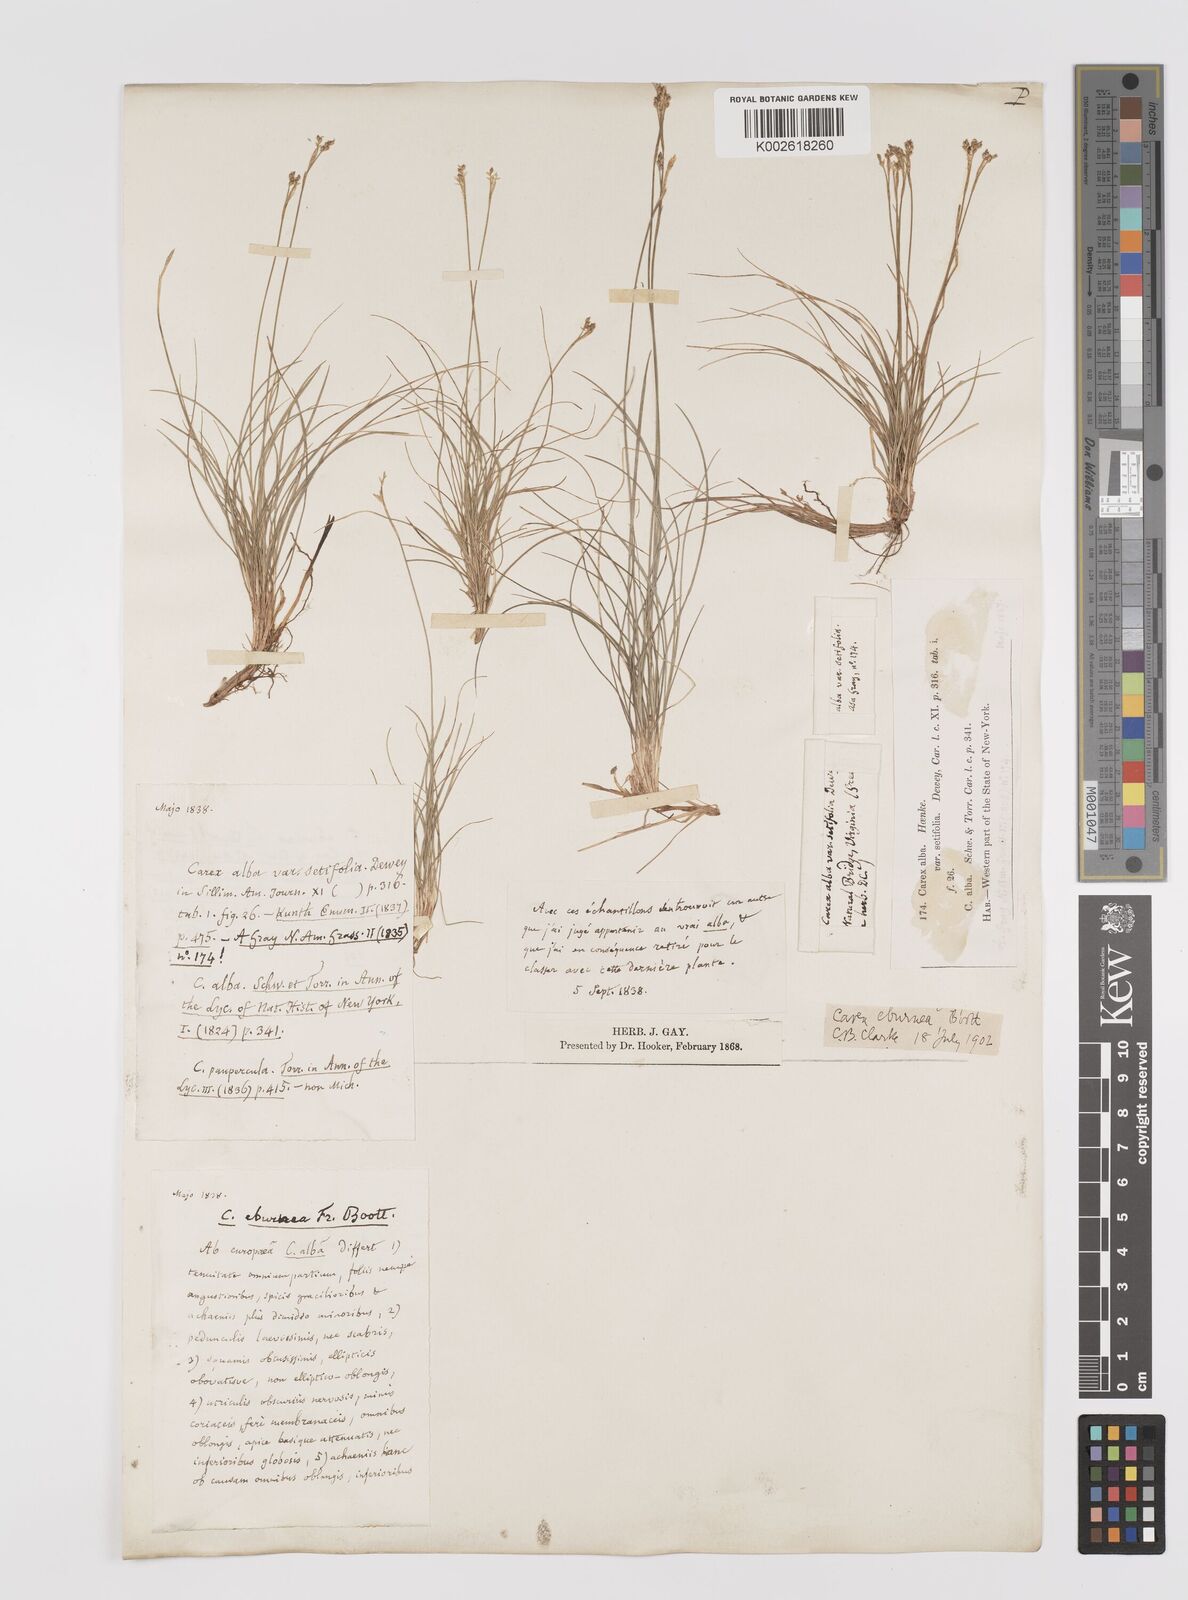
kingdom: Plantae
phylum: Tracheophyta
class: Liliopsida
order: Poales
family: Cyperaceae
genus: Carex
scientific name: Carex eburnea
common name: Bristle-leaved sedge
